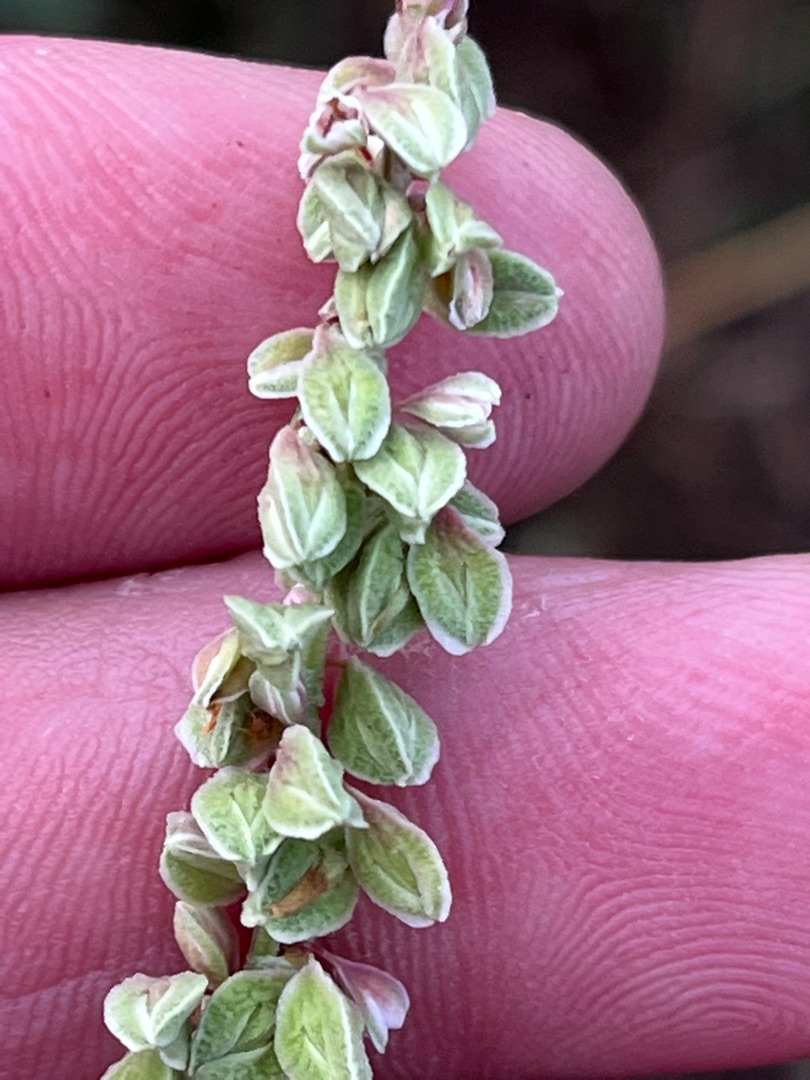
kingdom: Plantae
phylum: Tracheophyta
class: Magnoliopsida
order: Caryophyllales
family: Polygonaceae
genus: Fallopia
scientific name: Fallopia convolvulus
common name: Snerle-pileurt
